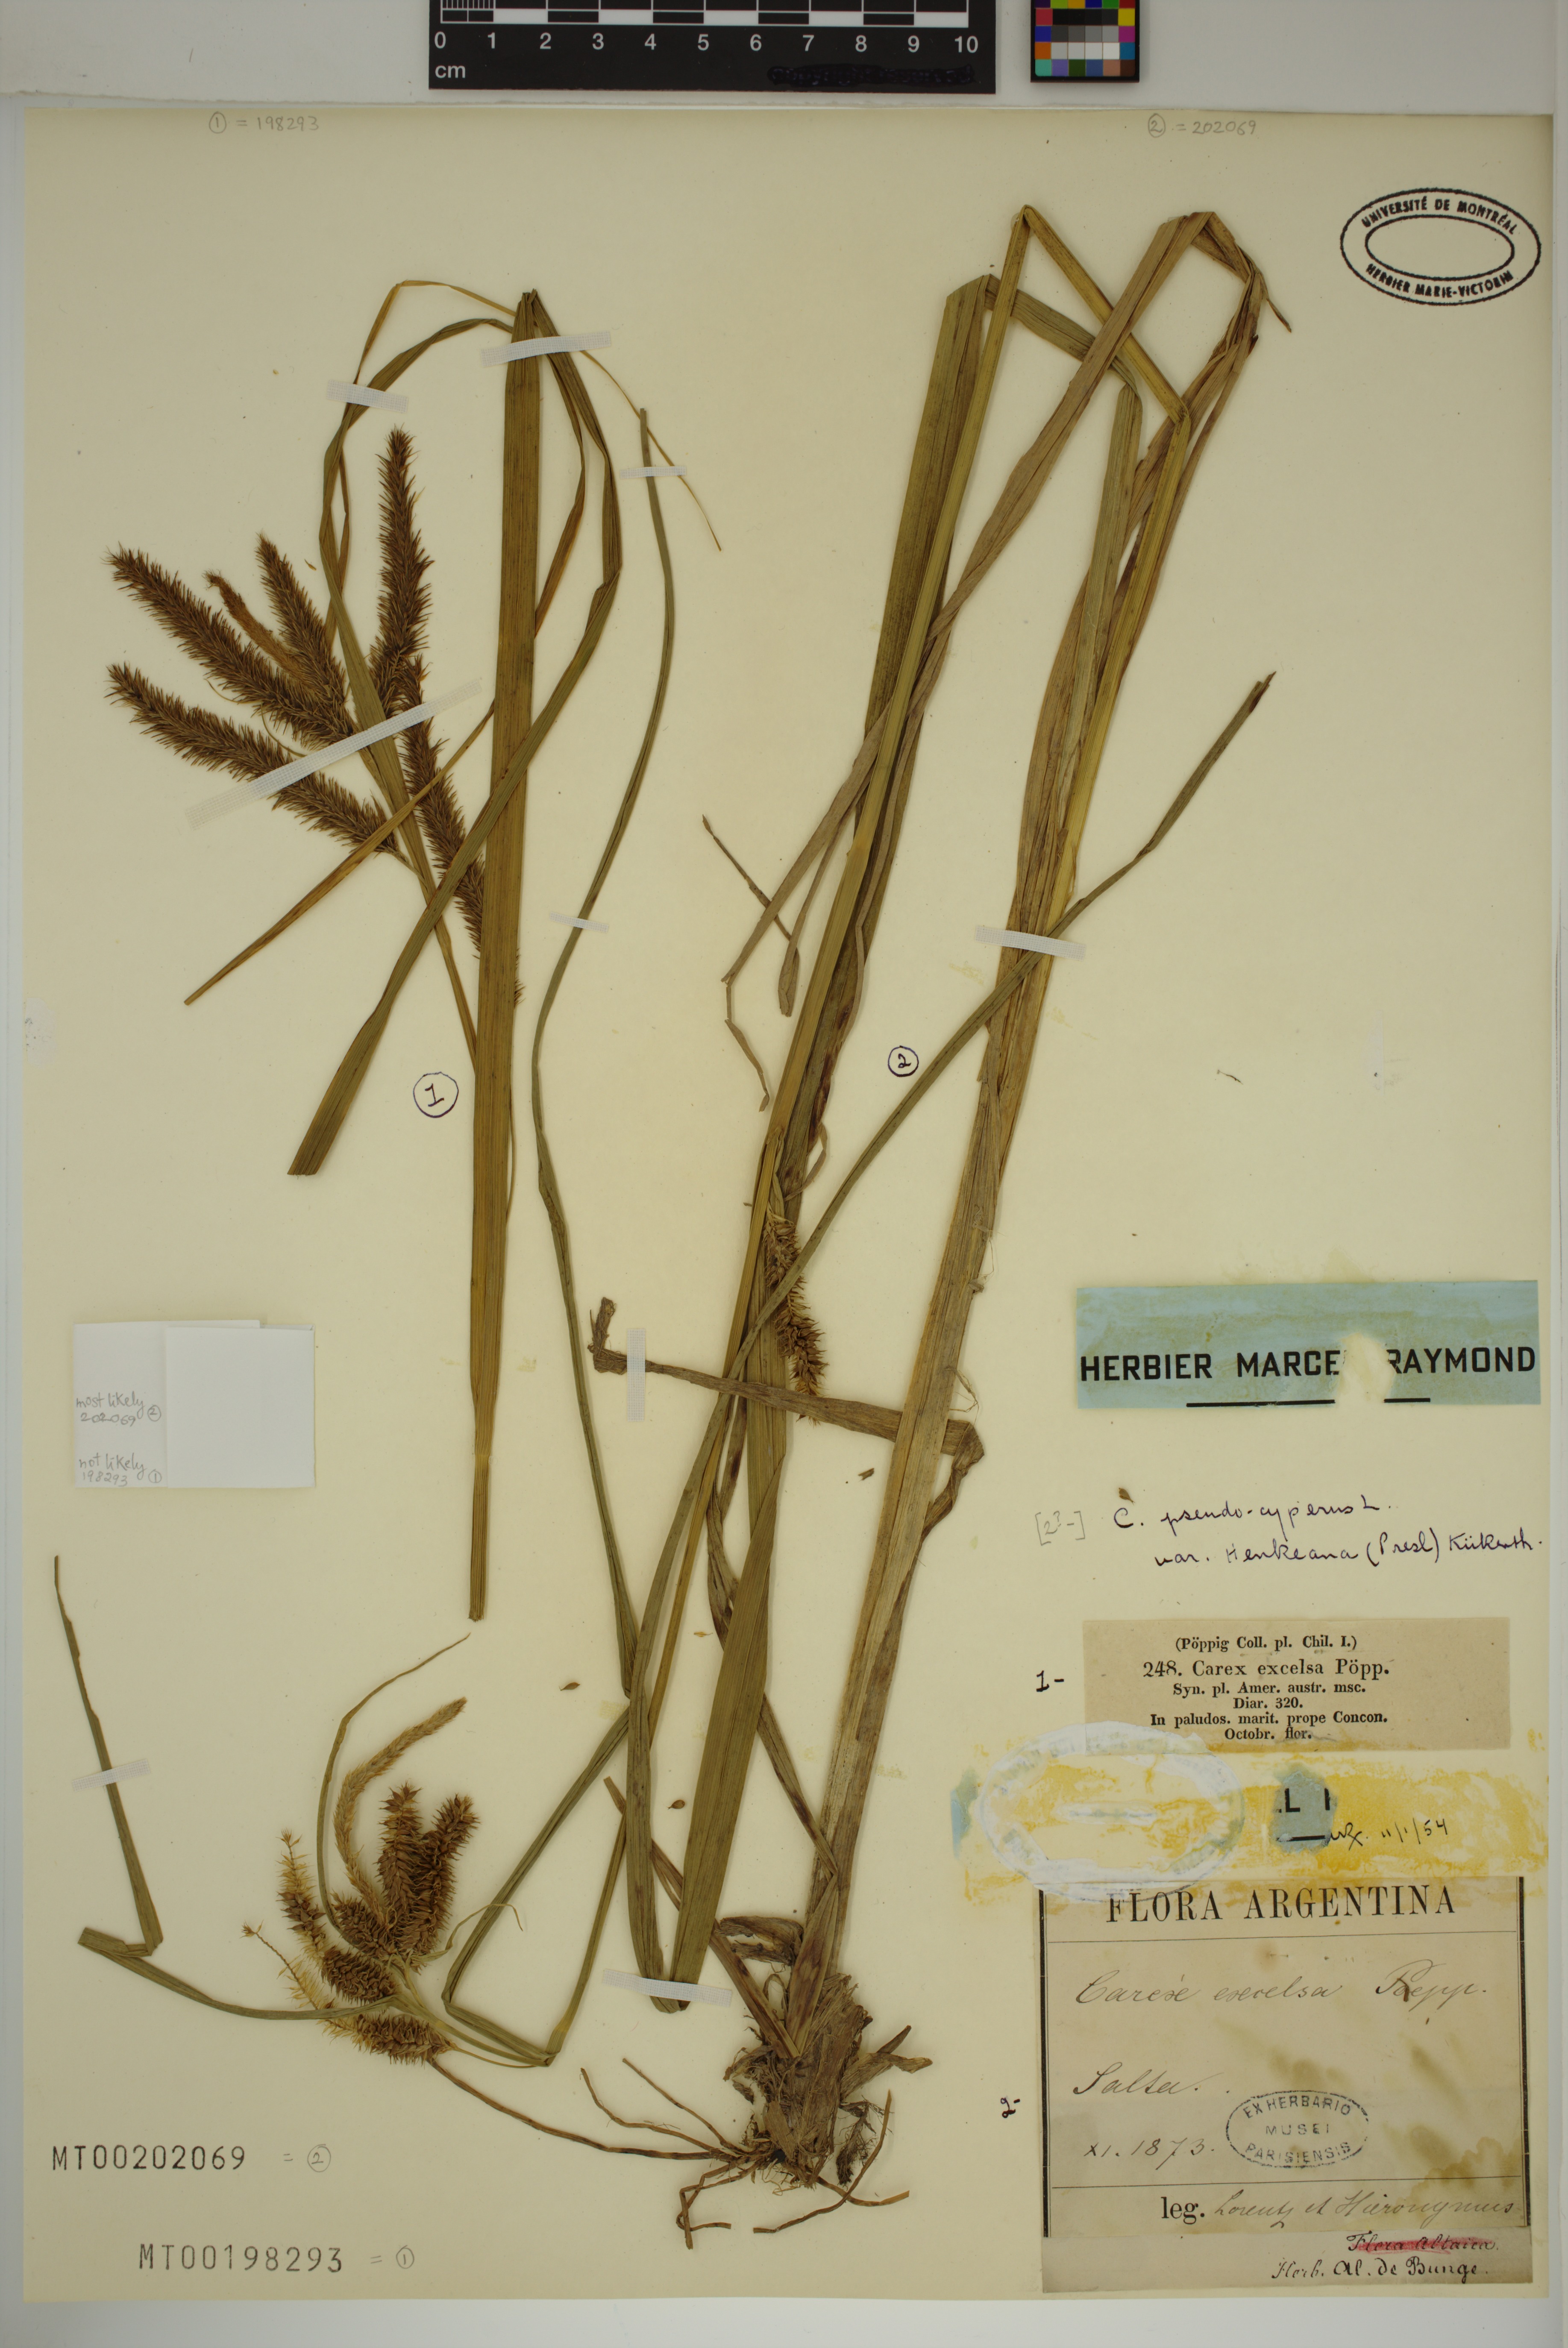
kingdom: Plantae
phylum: Tracheophyta
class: Liliopsida
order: Poales
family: Cyperaceae
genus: Carex
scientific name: Carex excelsa
